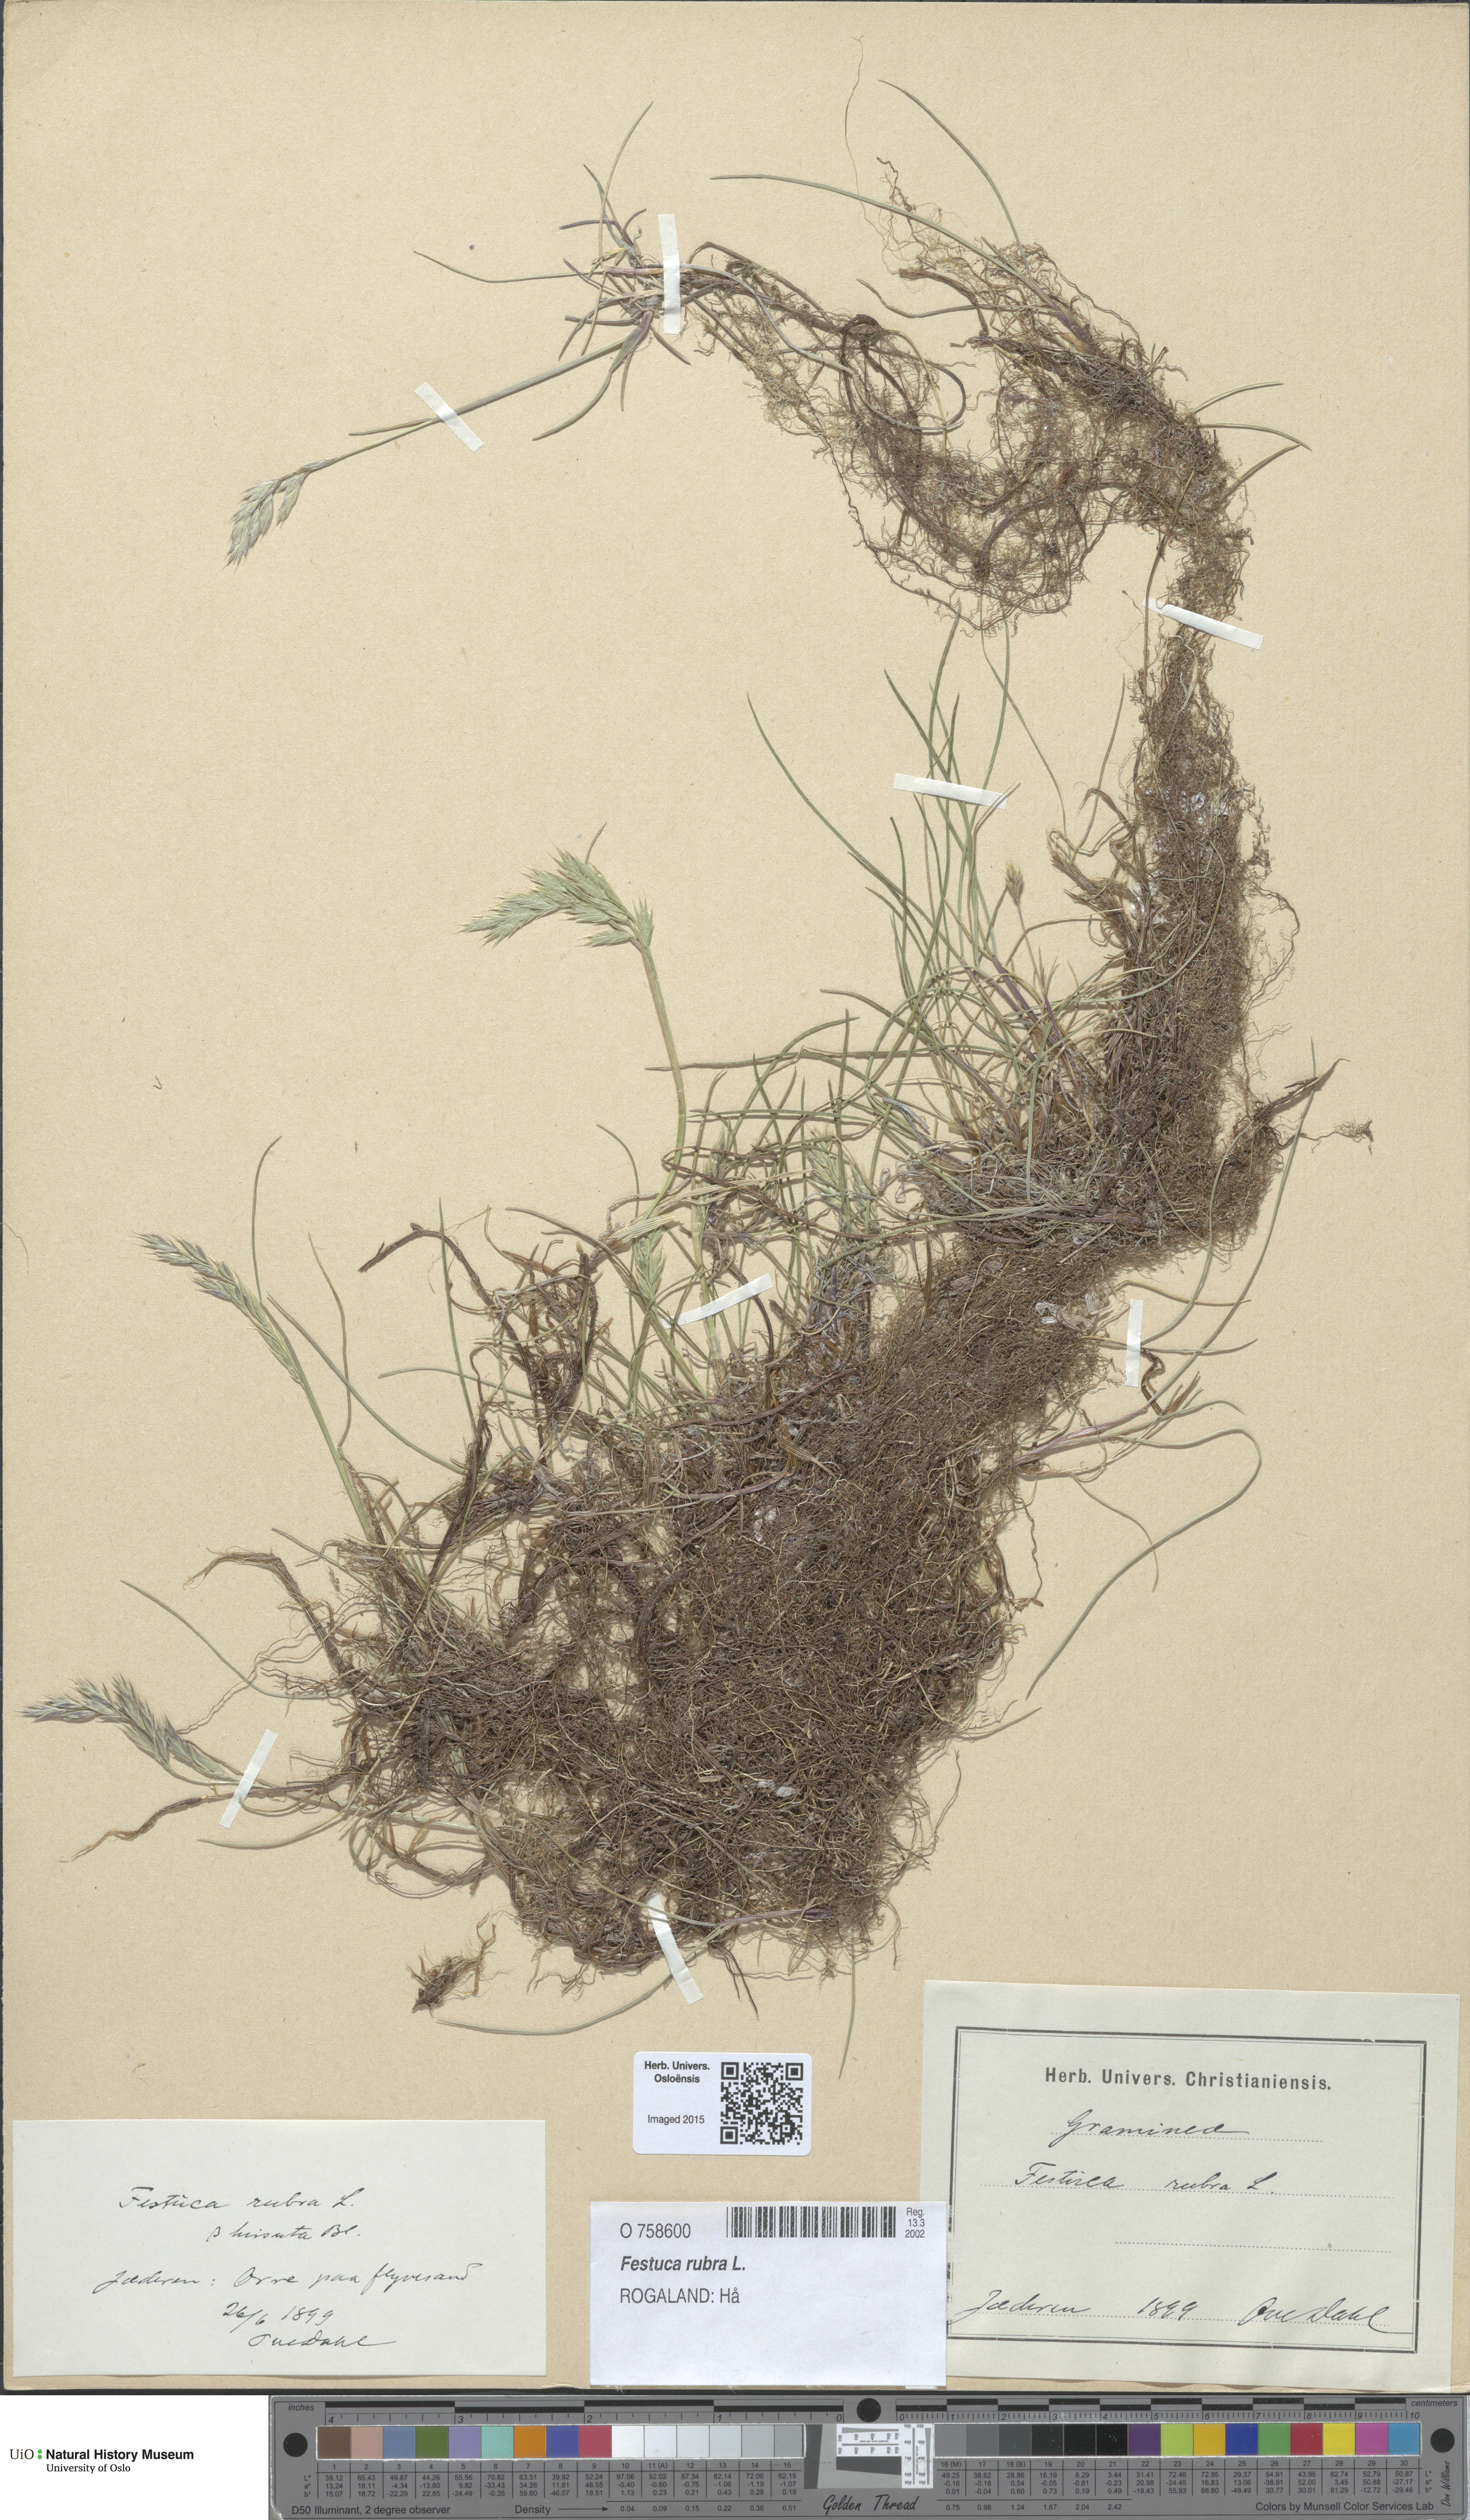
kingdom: Plantae
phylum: Tracheophyta
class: Liliopsida
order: Poales
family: Poaceae
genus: Festuca
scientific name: Festuca rubra
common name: Red fescue
